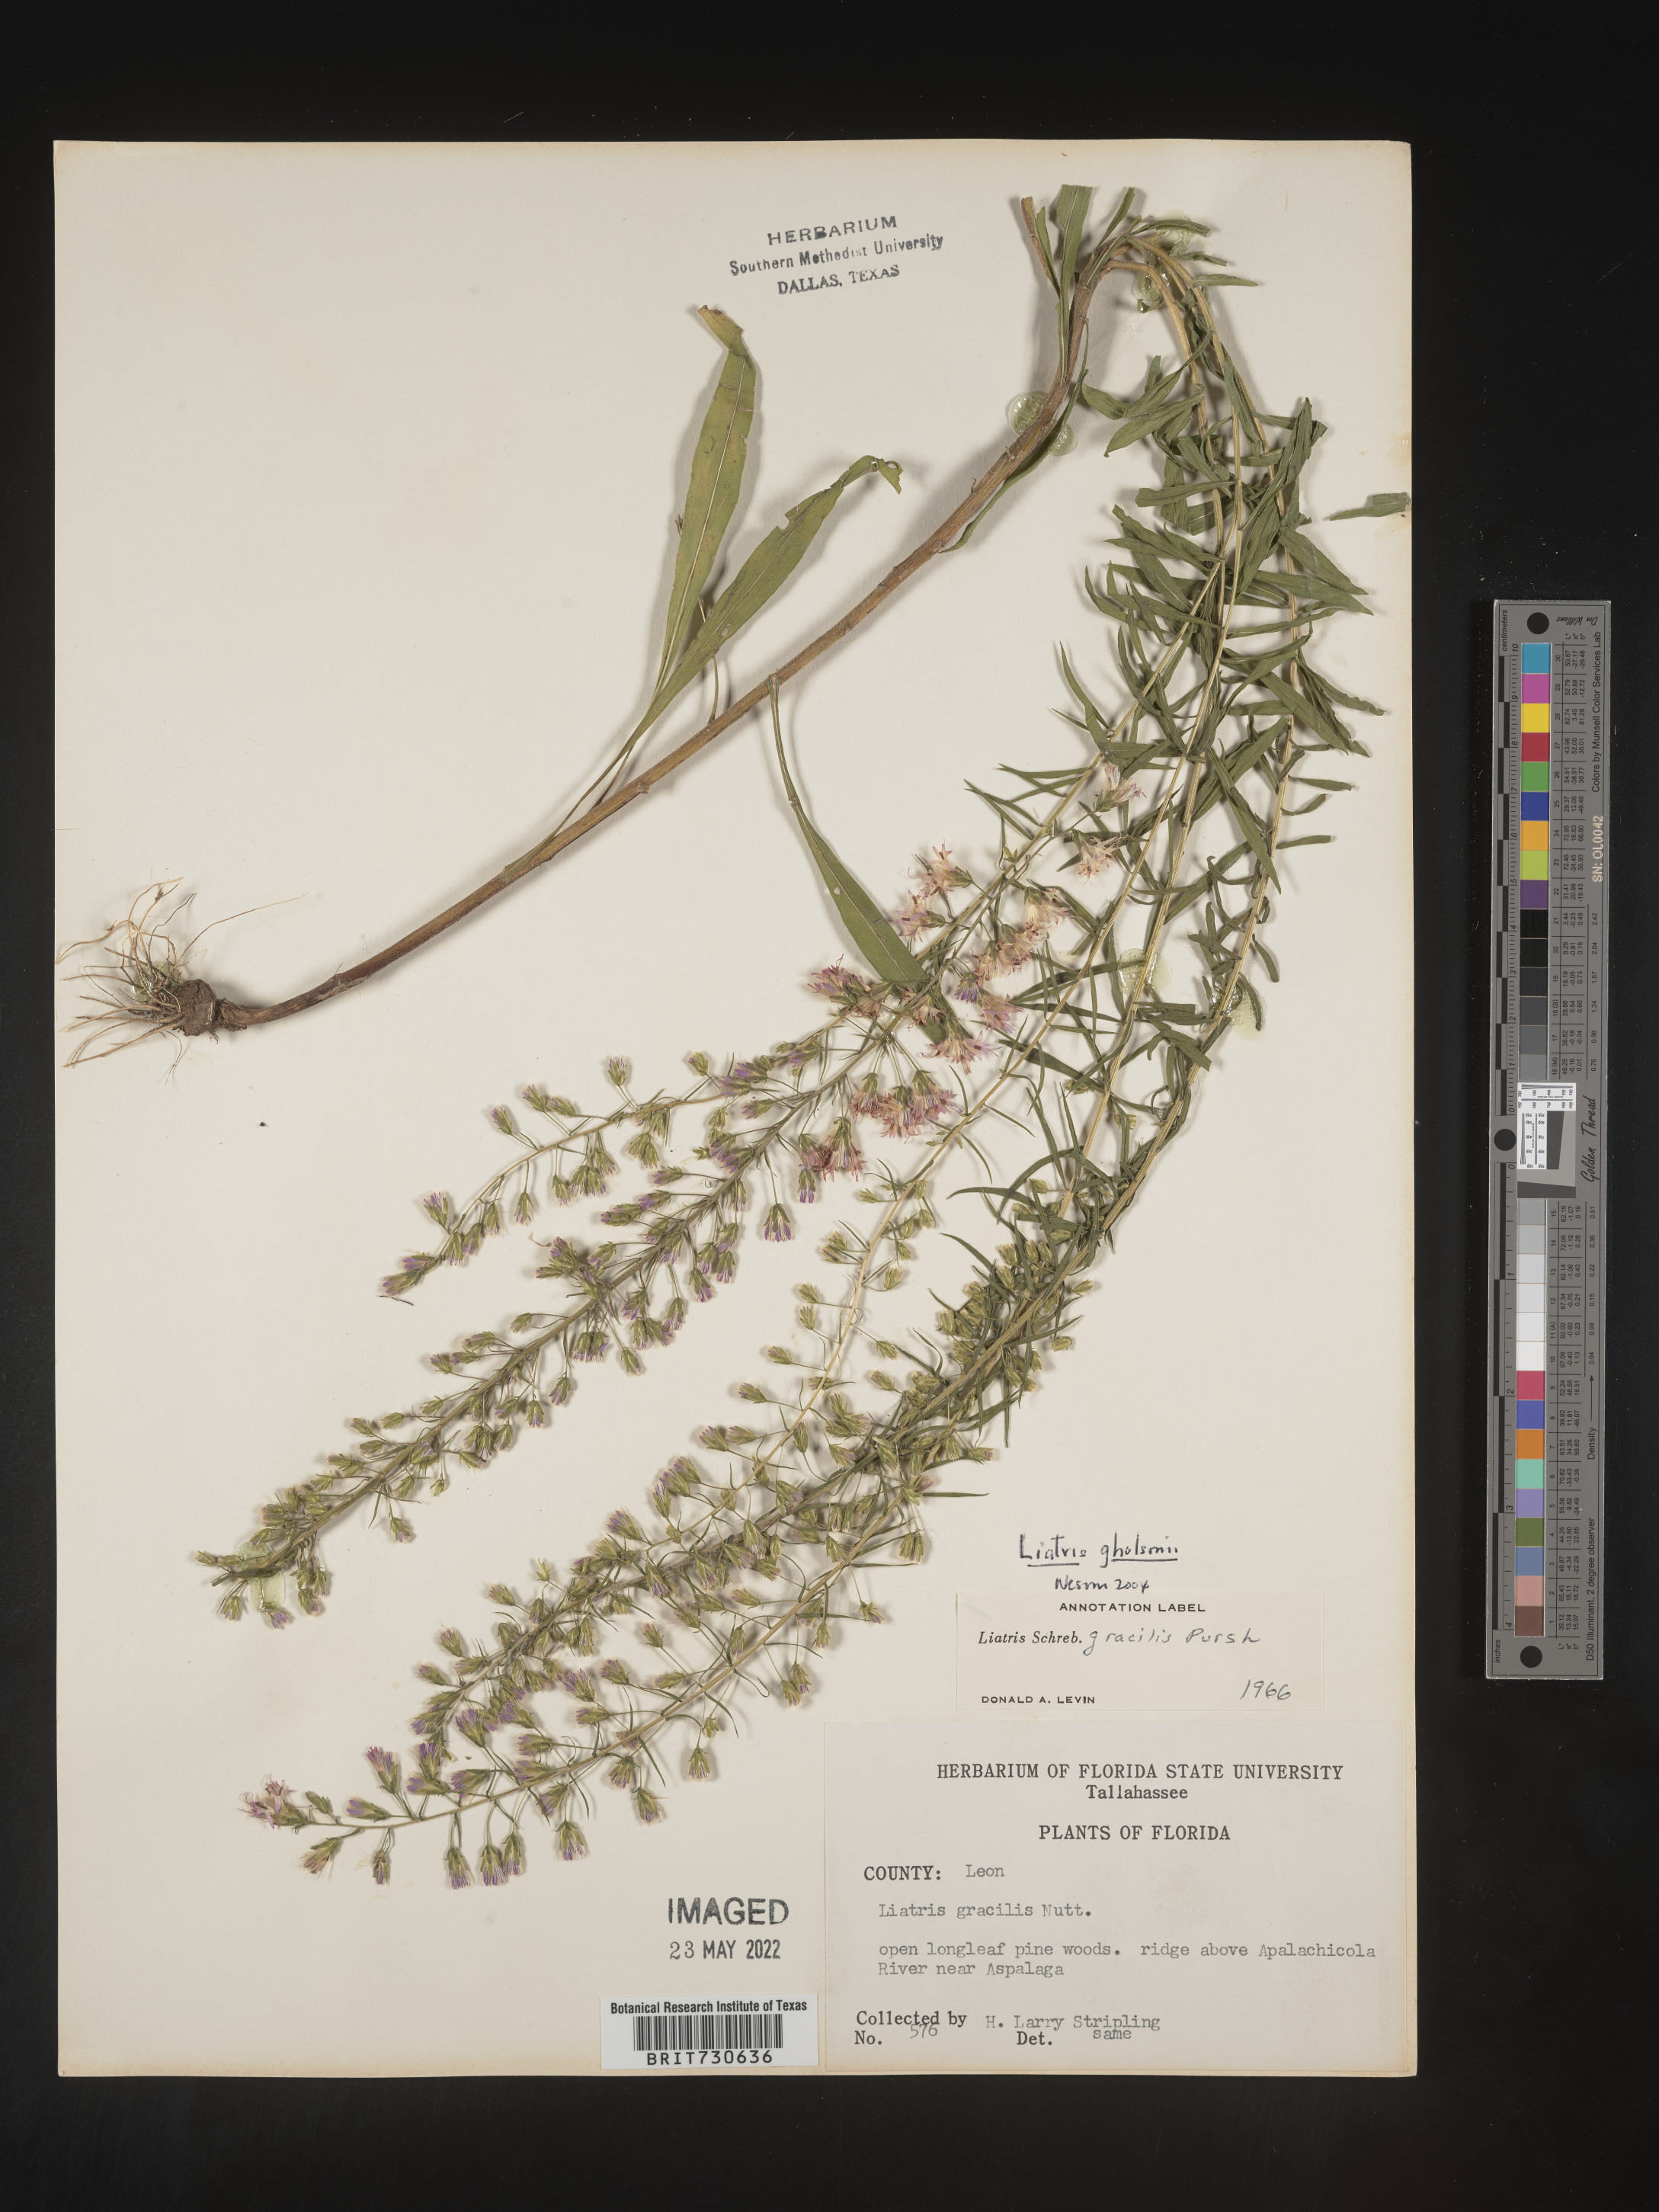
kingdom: Plantae
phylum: Tracheophyta
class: Magnoliopsida
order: Asterales
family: Asteraceae
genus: Liatris
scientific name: Liatris gracilis
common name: Slender gayfeather
